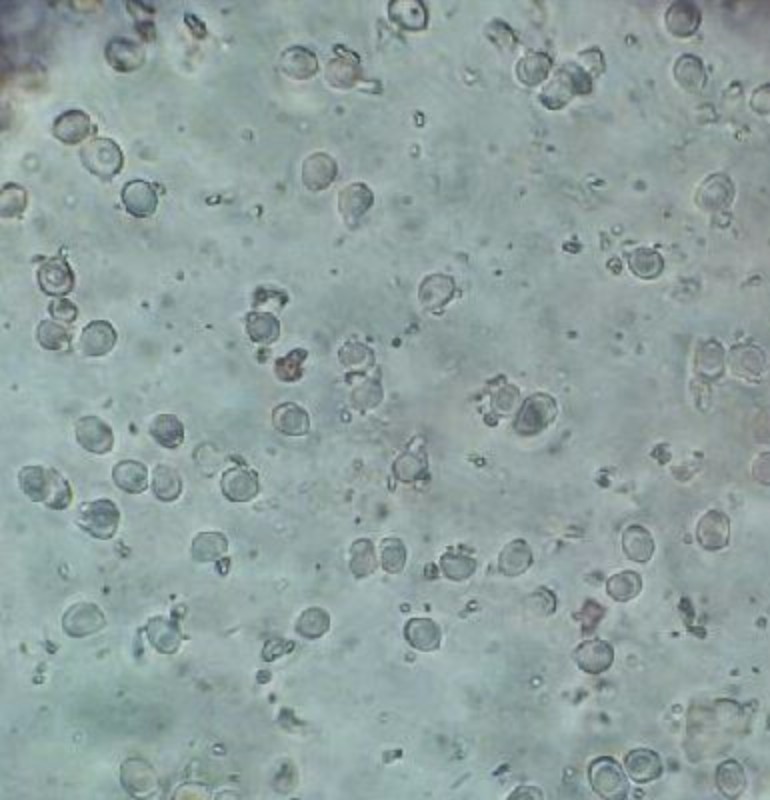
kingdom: Fungi
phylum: Basidiomycota
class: Agaricomycetes
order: Trechisporales
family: Sistotremataceae
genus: Trechispora
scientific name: Trechispora
